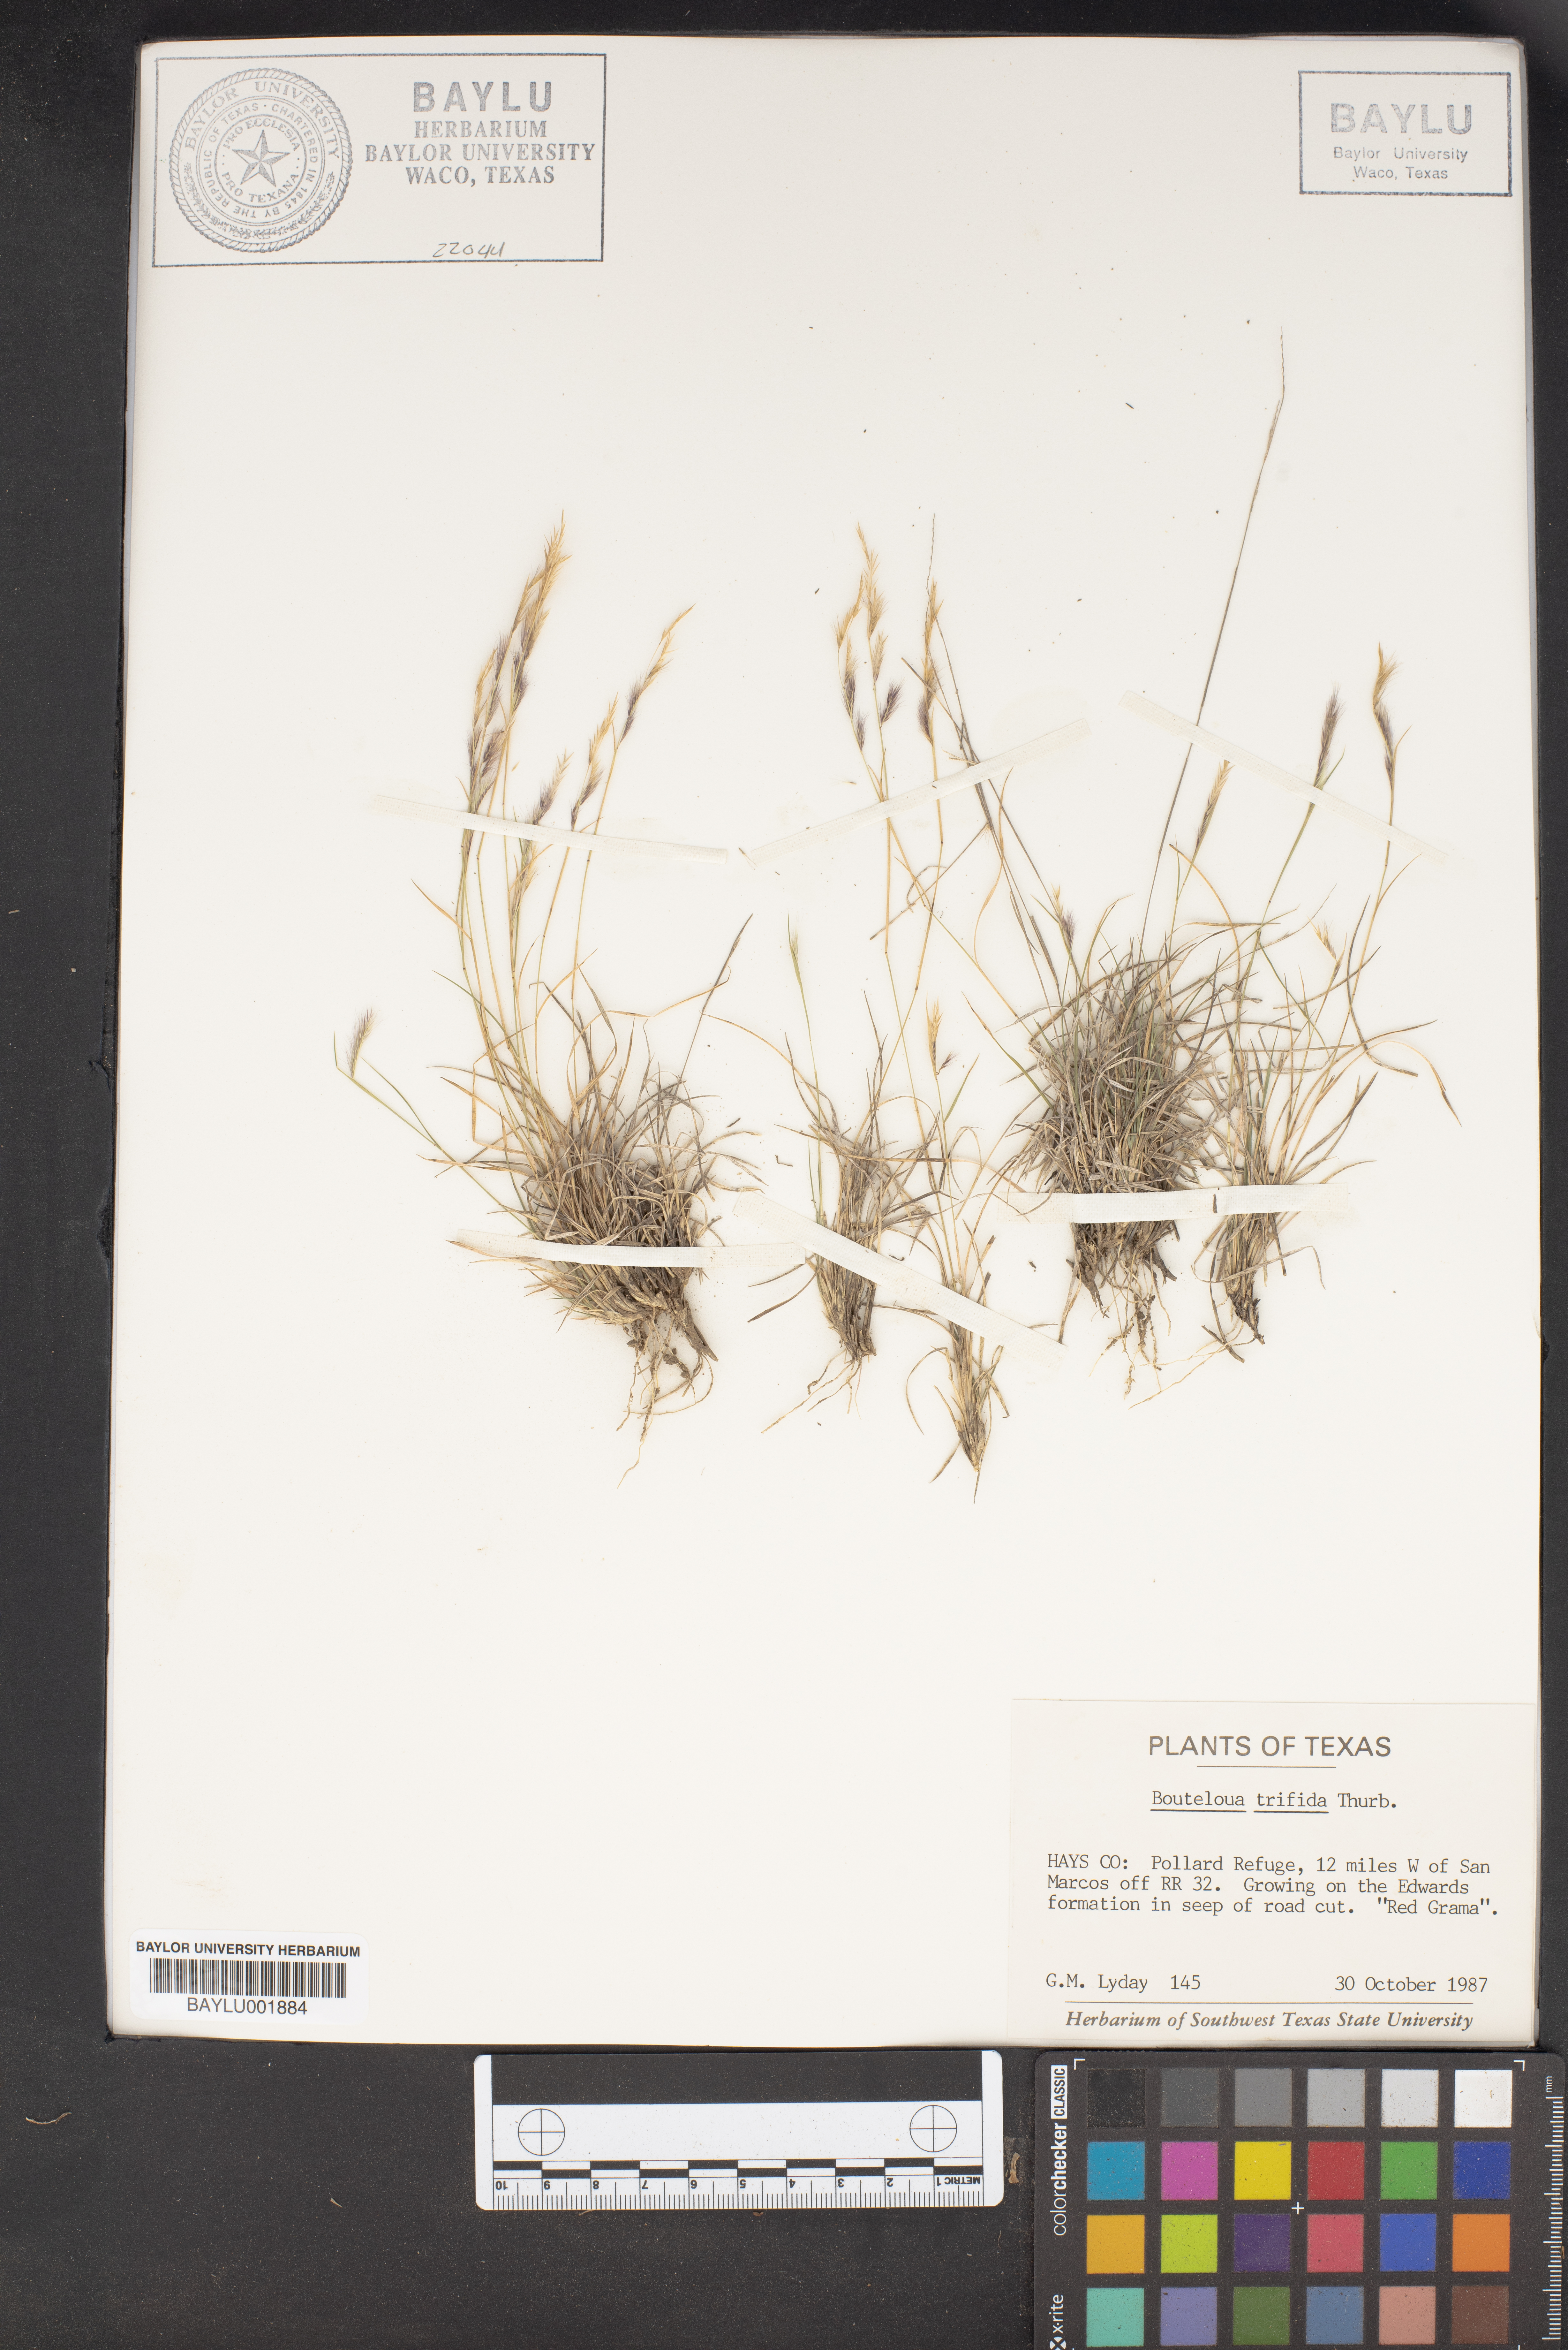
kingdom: Plantae
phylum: Tracheophyta
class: Liliopsida
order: Poales
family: Poaceae
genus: Bouteloua
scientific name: Bouteloua trifida
